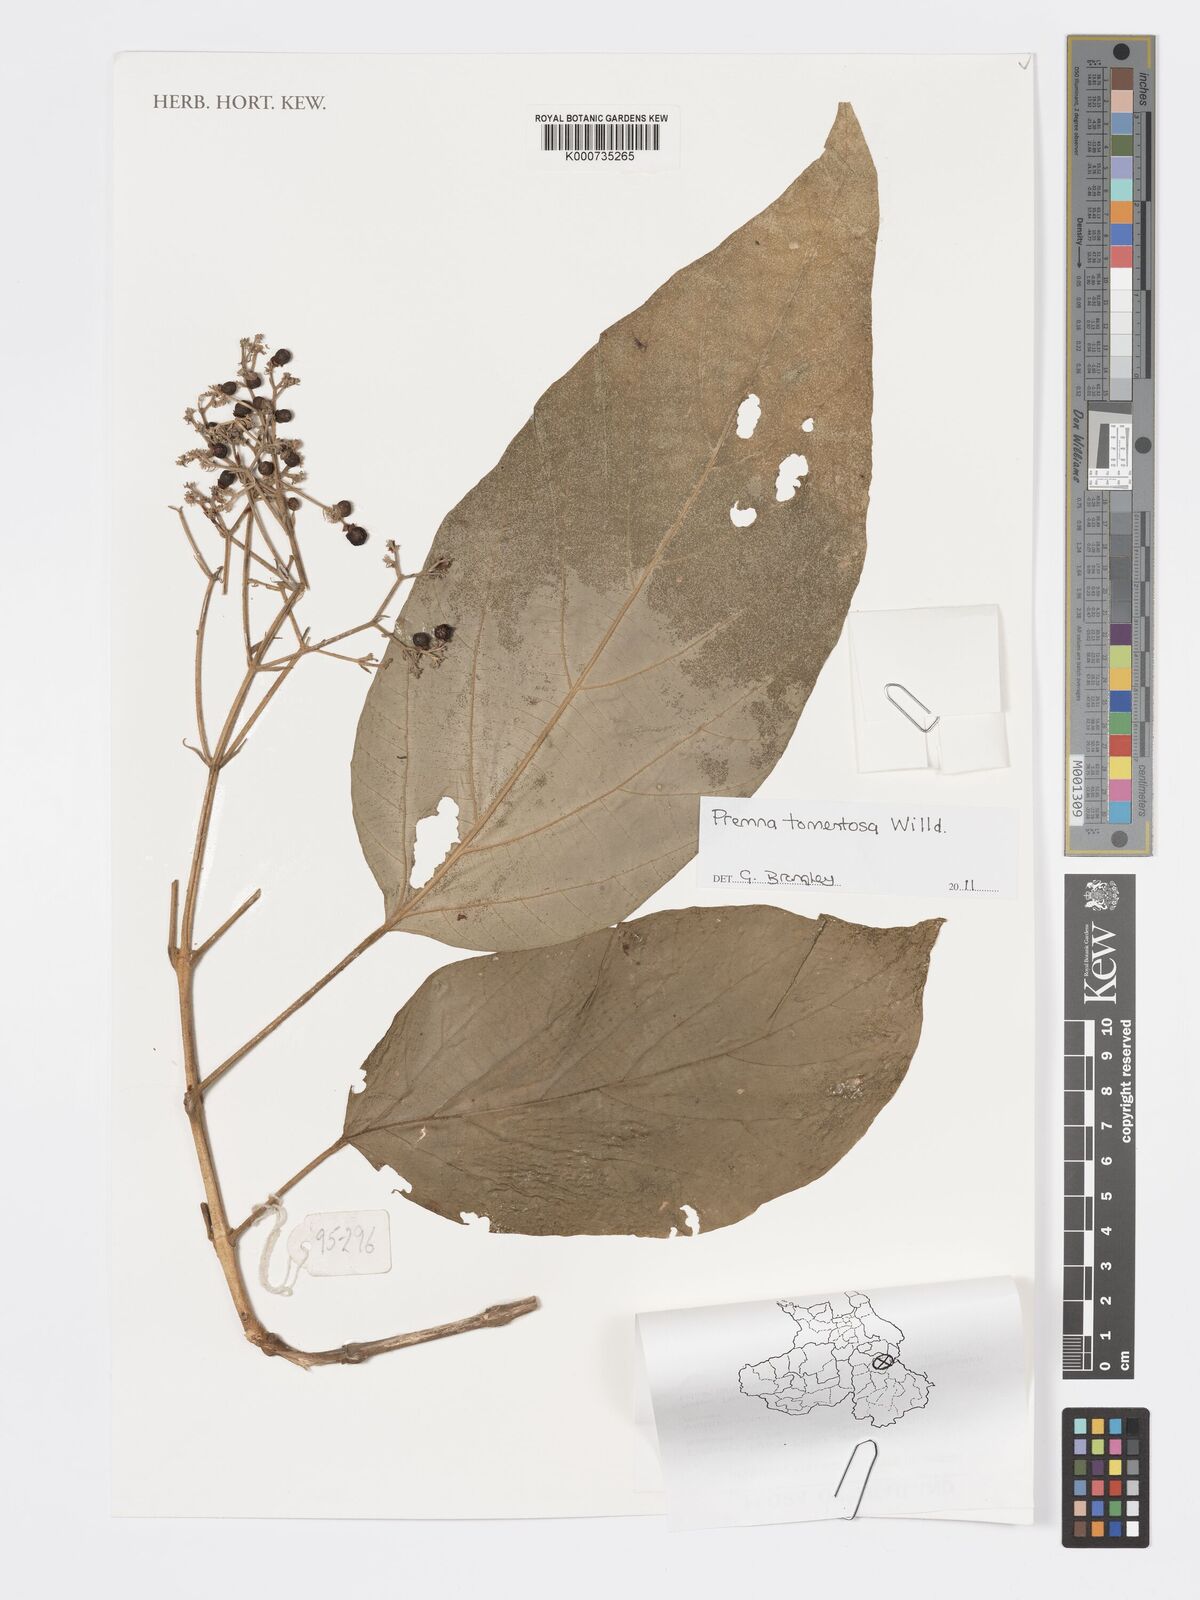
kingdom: Plantae
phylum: Tracheophyta
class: Magnoliopsida
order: Lamiales
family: Lamiaceae
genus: Premna
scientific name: Premna tomentosa
